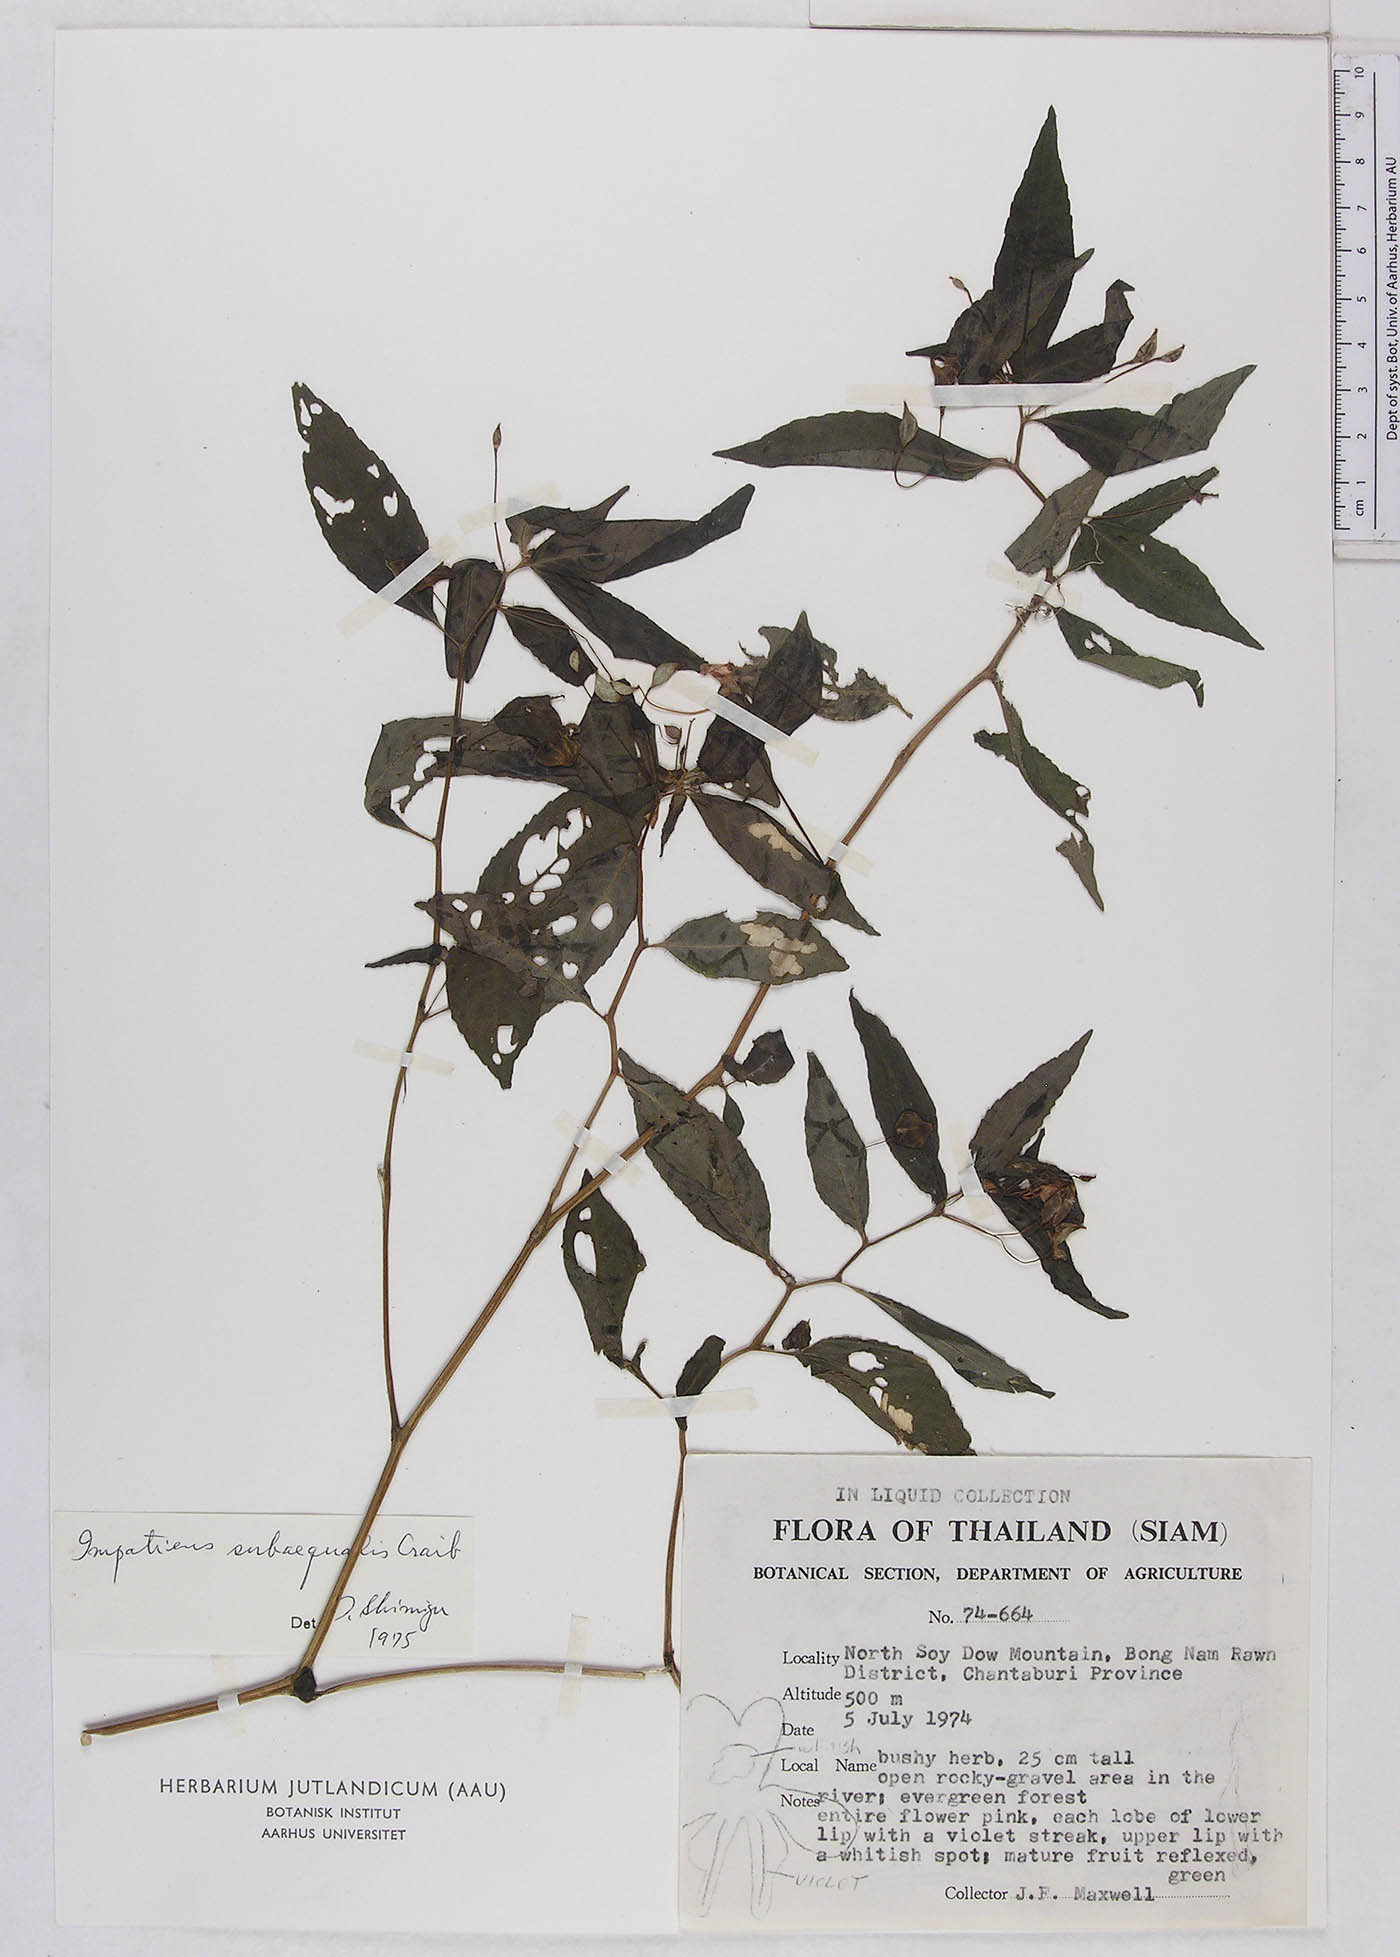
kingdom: Plantae
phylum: Tracheophyta
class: Magnoliopsida
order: Ericales
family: Balsaminaceae
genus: Impatiens
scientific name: Impatiens subaequalis
